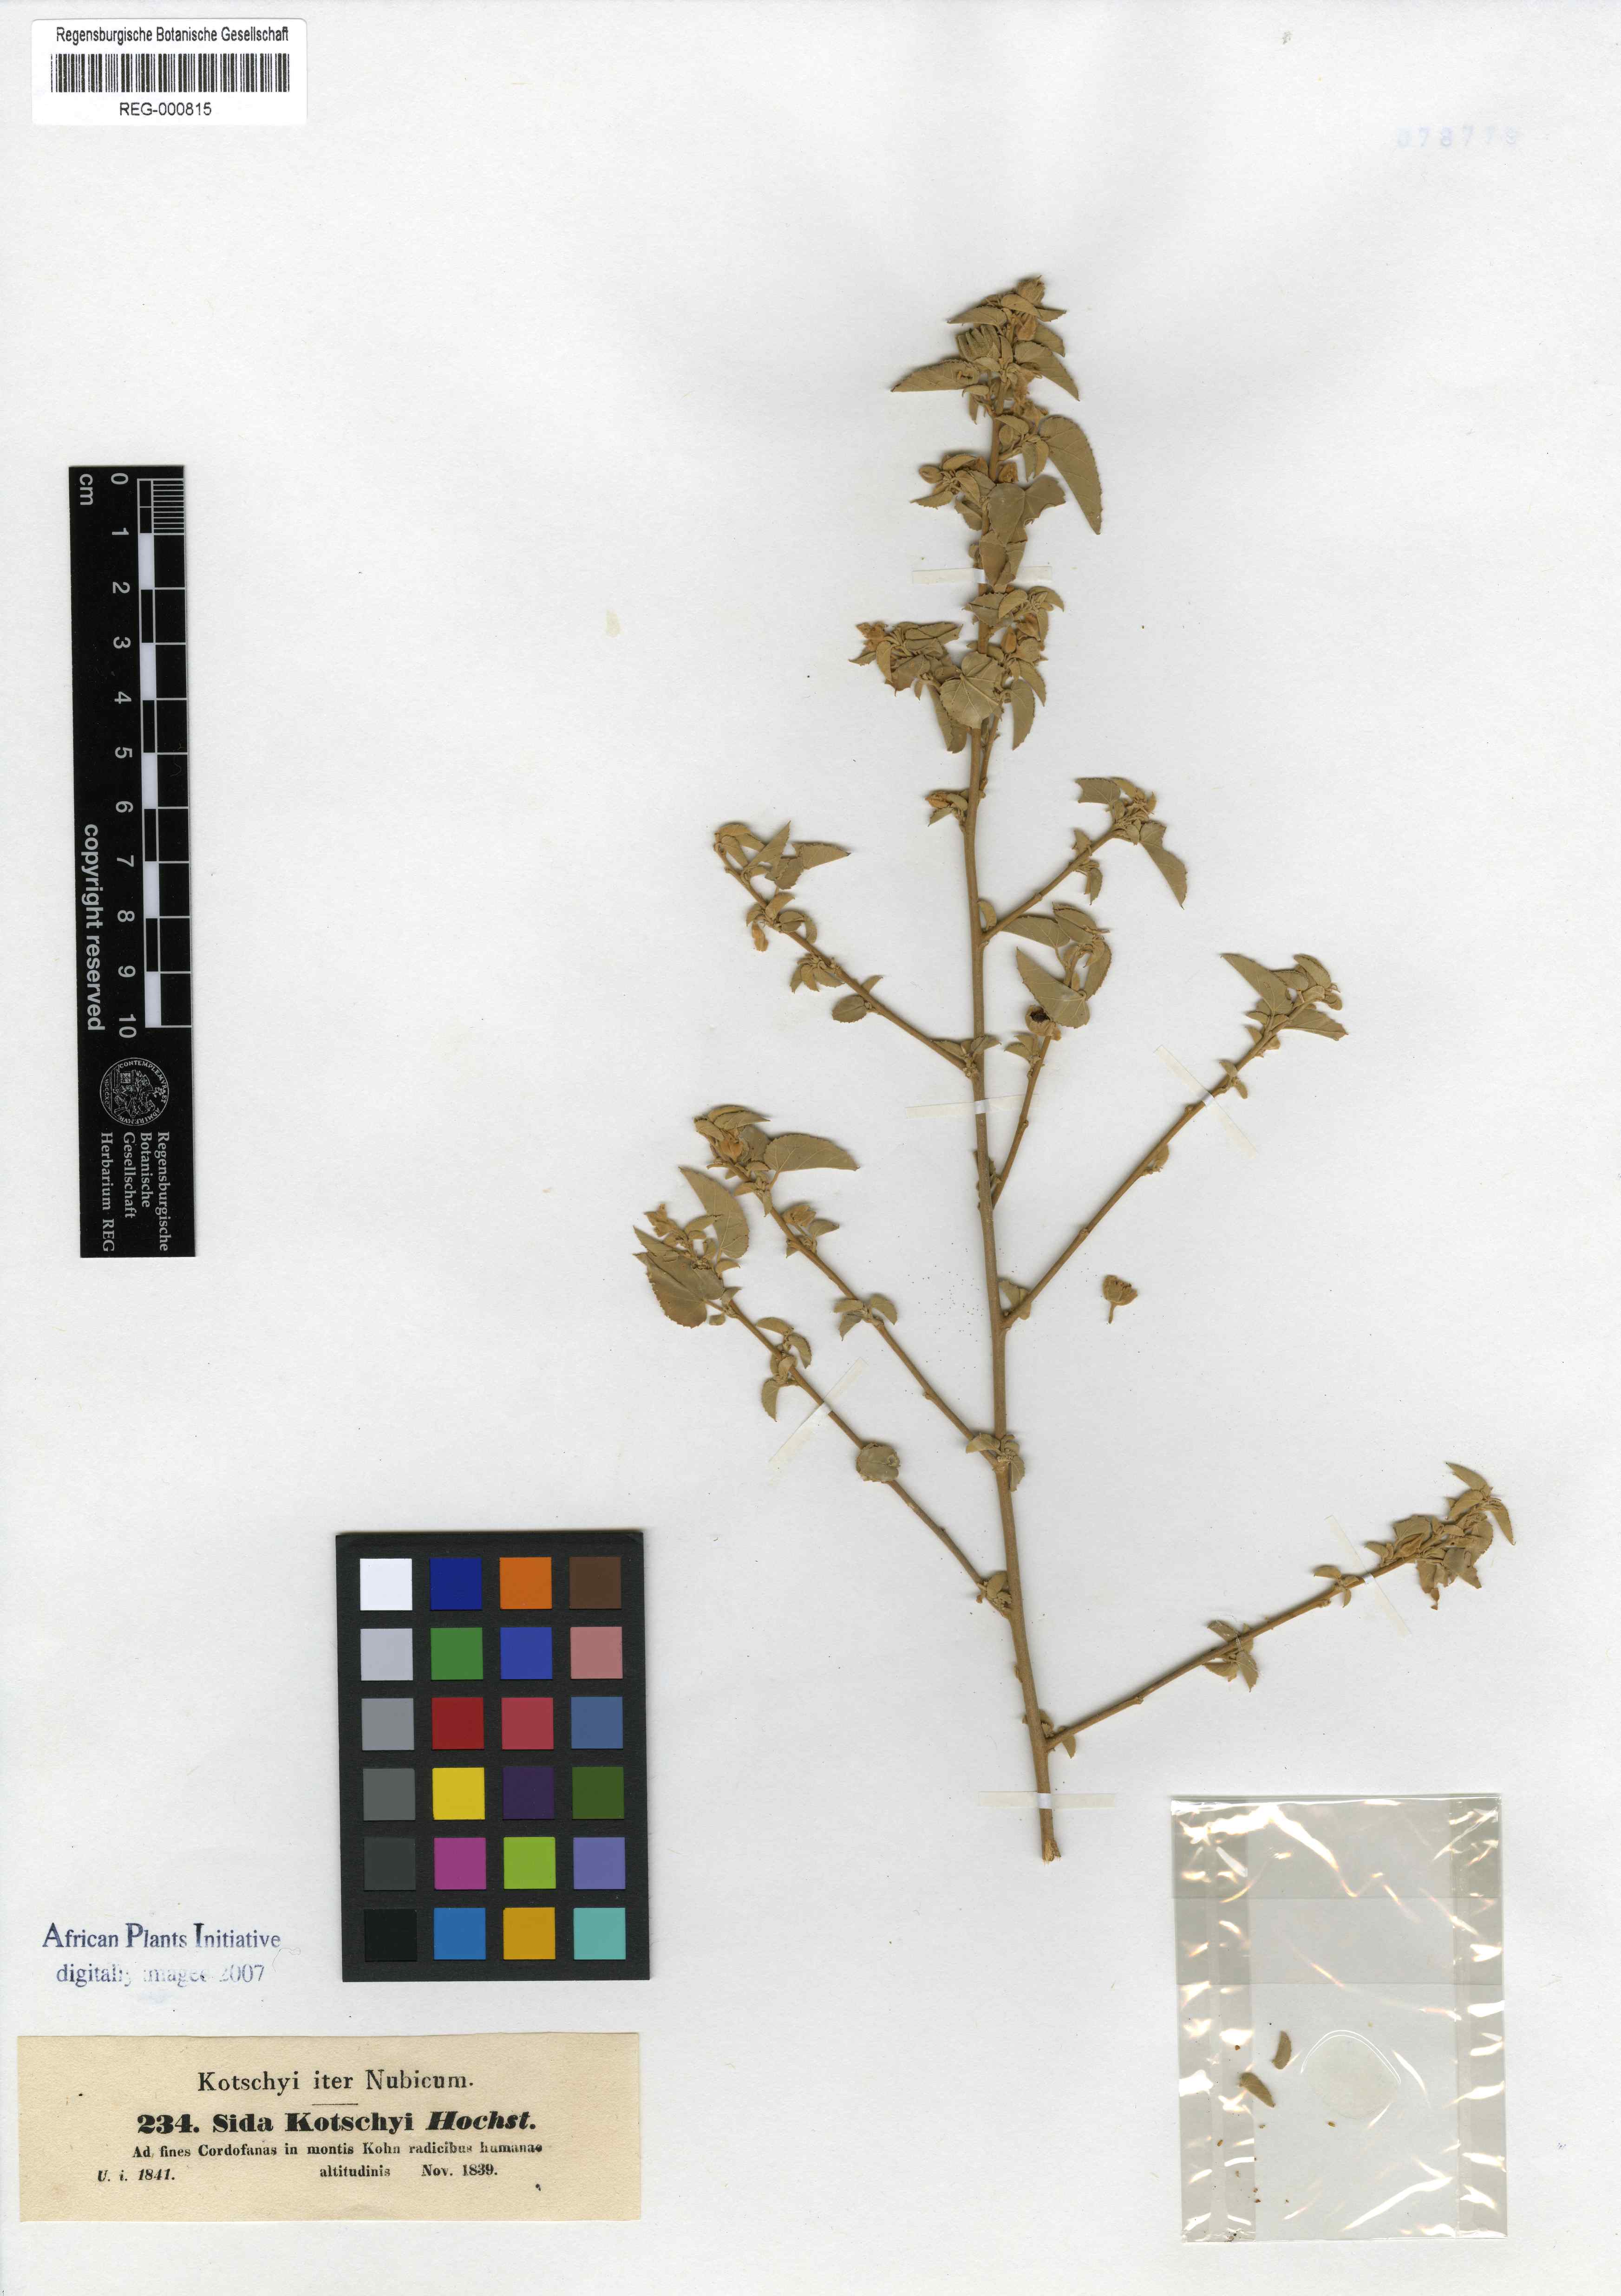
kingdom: Plantae
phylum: Tracheophyta
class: Magnoliopsida
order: Malvales
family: Malvaceae
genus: Abutilon
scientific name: Abutilon fruticosum
